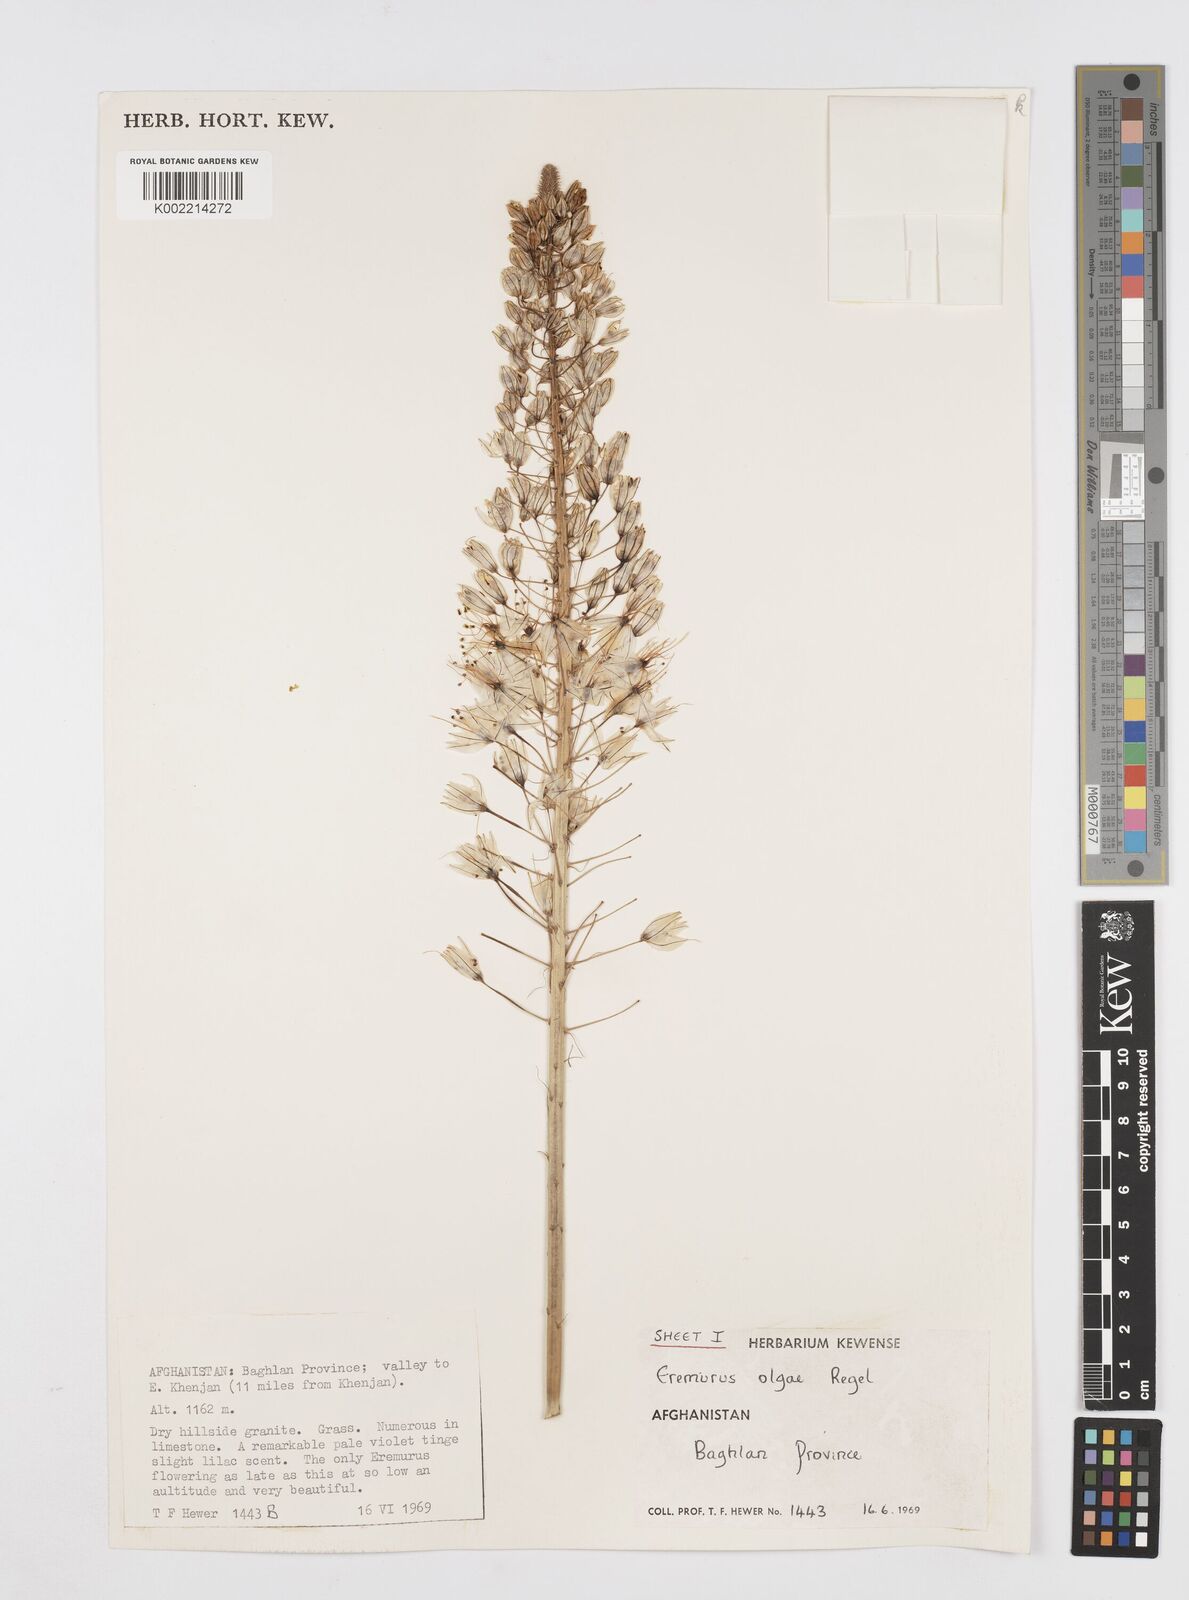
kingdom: Plantae
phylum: Tracheophyta
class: Liliopsida
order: Asparagales
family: Asphodelaceae
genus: Eremurus
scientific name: Eremurus olgae
